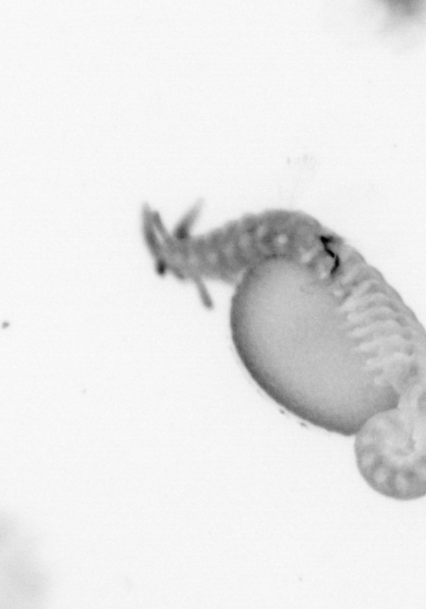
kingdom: Animalia
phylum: Annelida
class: Polychaeta
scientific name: Polychaeta
